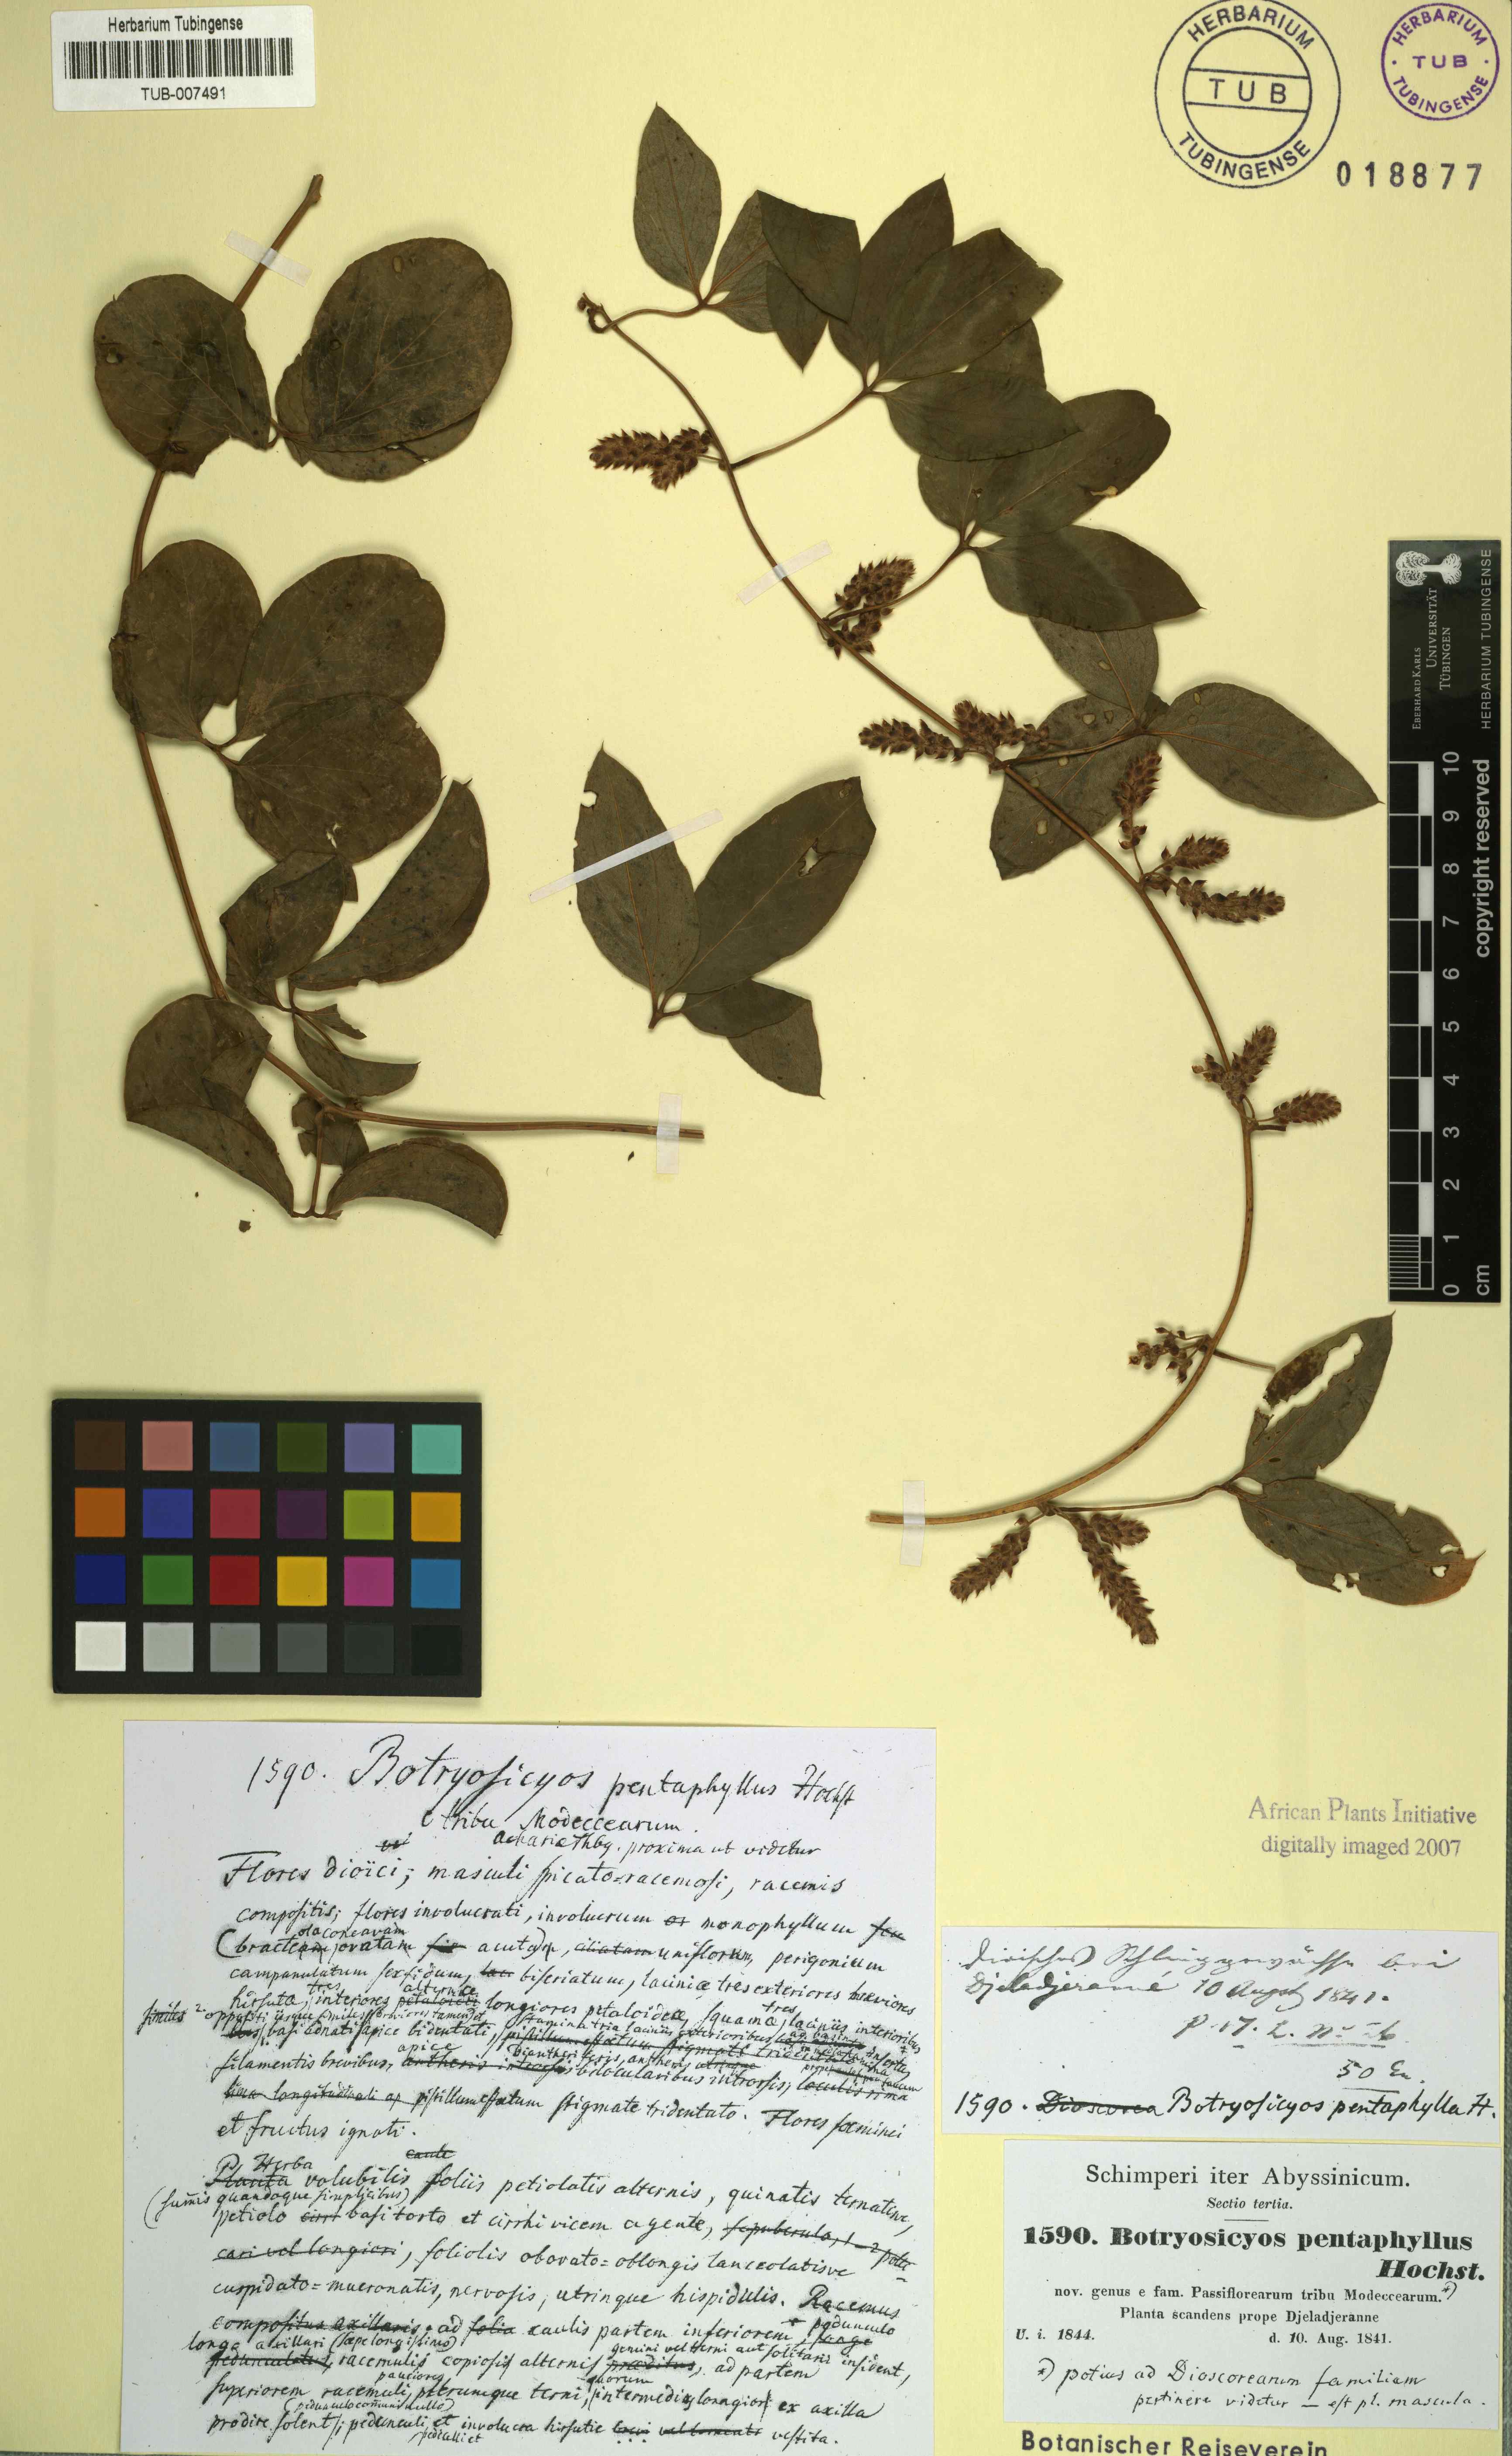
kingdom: Plantae
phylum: Tracheophyta
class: Liliopsida
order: Dioscoreales
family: Dioscoreaceae
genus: Dioscorea
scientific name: Dioscorea pentaphylla
